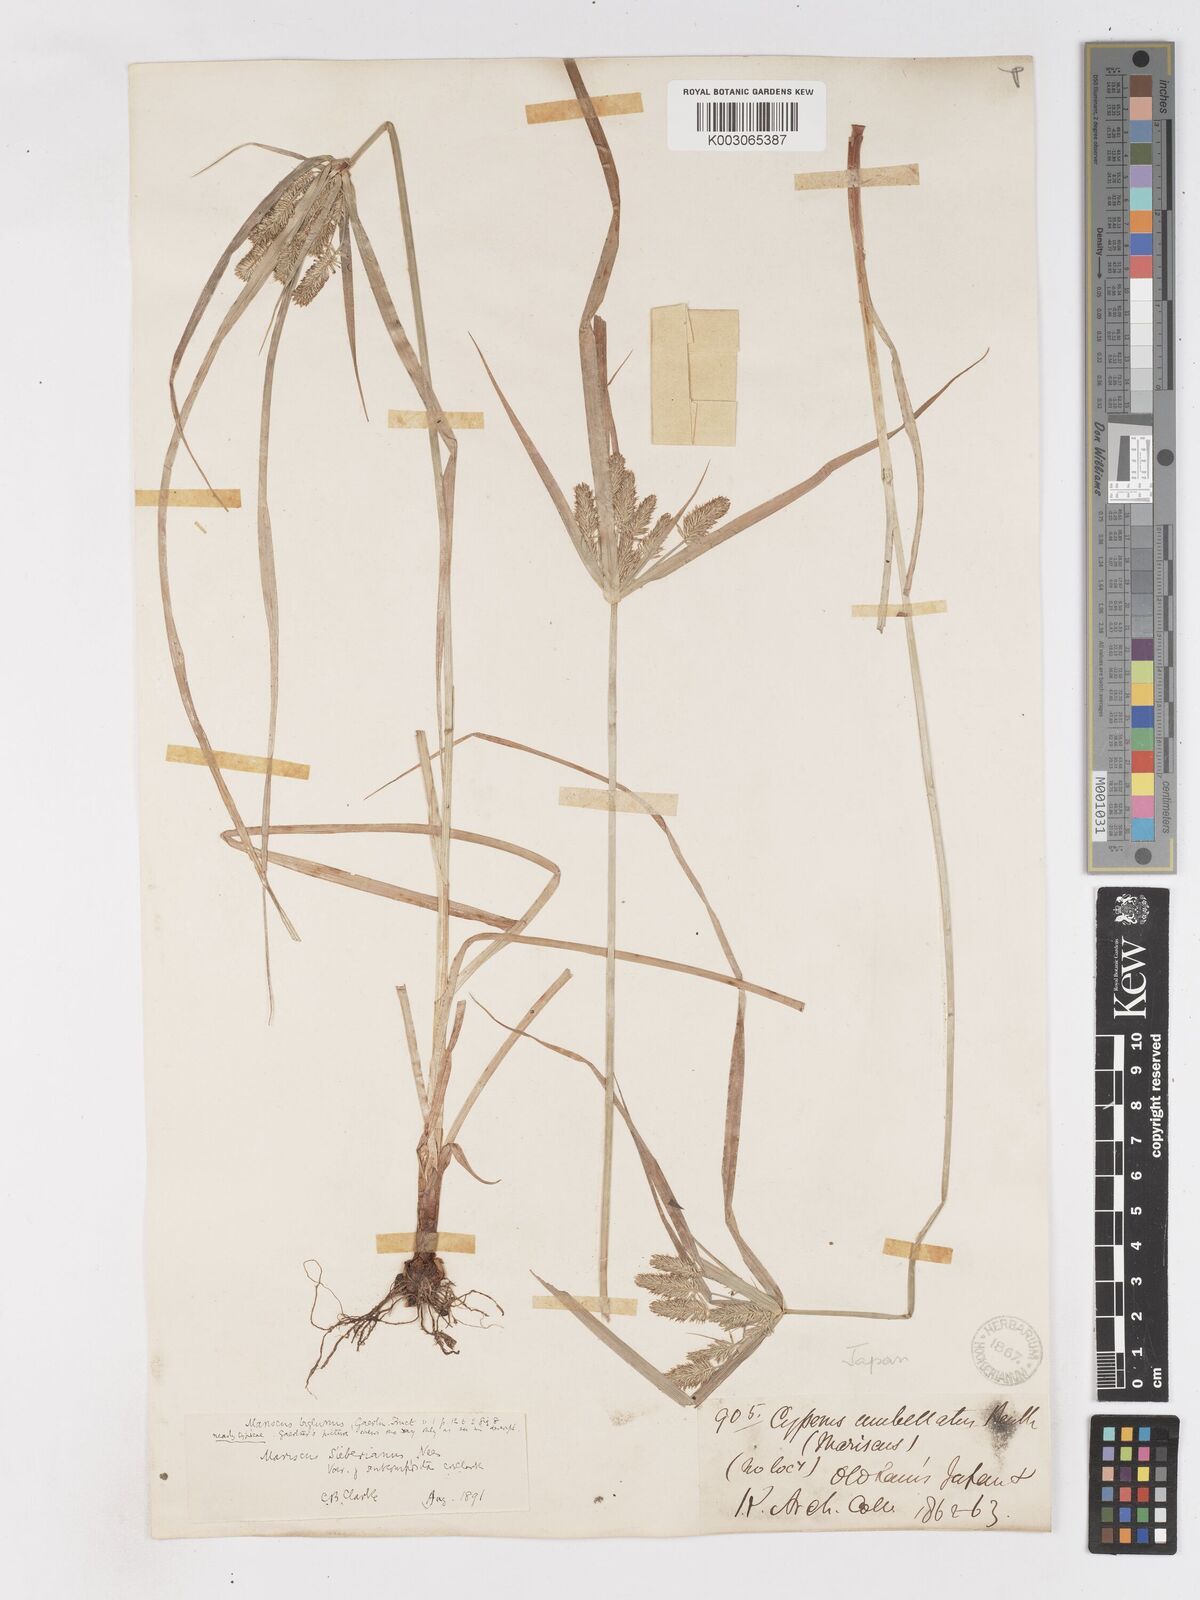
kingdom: Plantae
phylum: Tracheophyta
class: Liliopsida
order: Poales
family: Cyperaceae
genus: Cyperus
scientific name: Cyperus cyperoides
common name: Pacific island flat sedge
